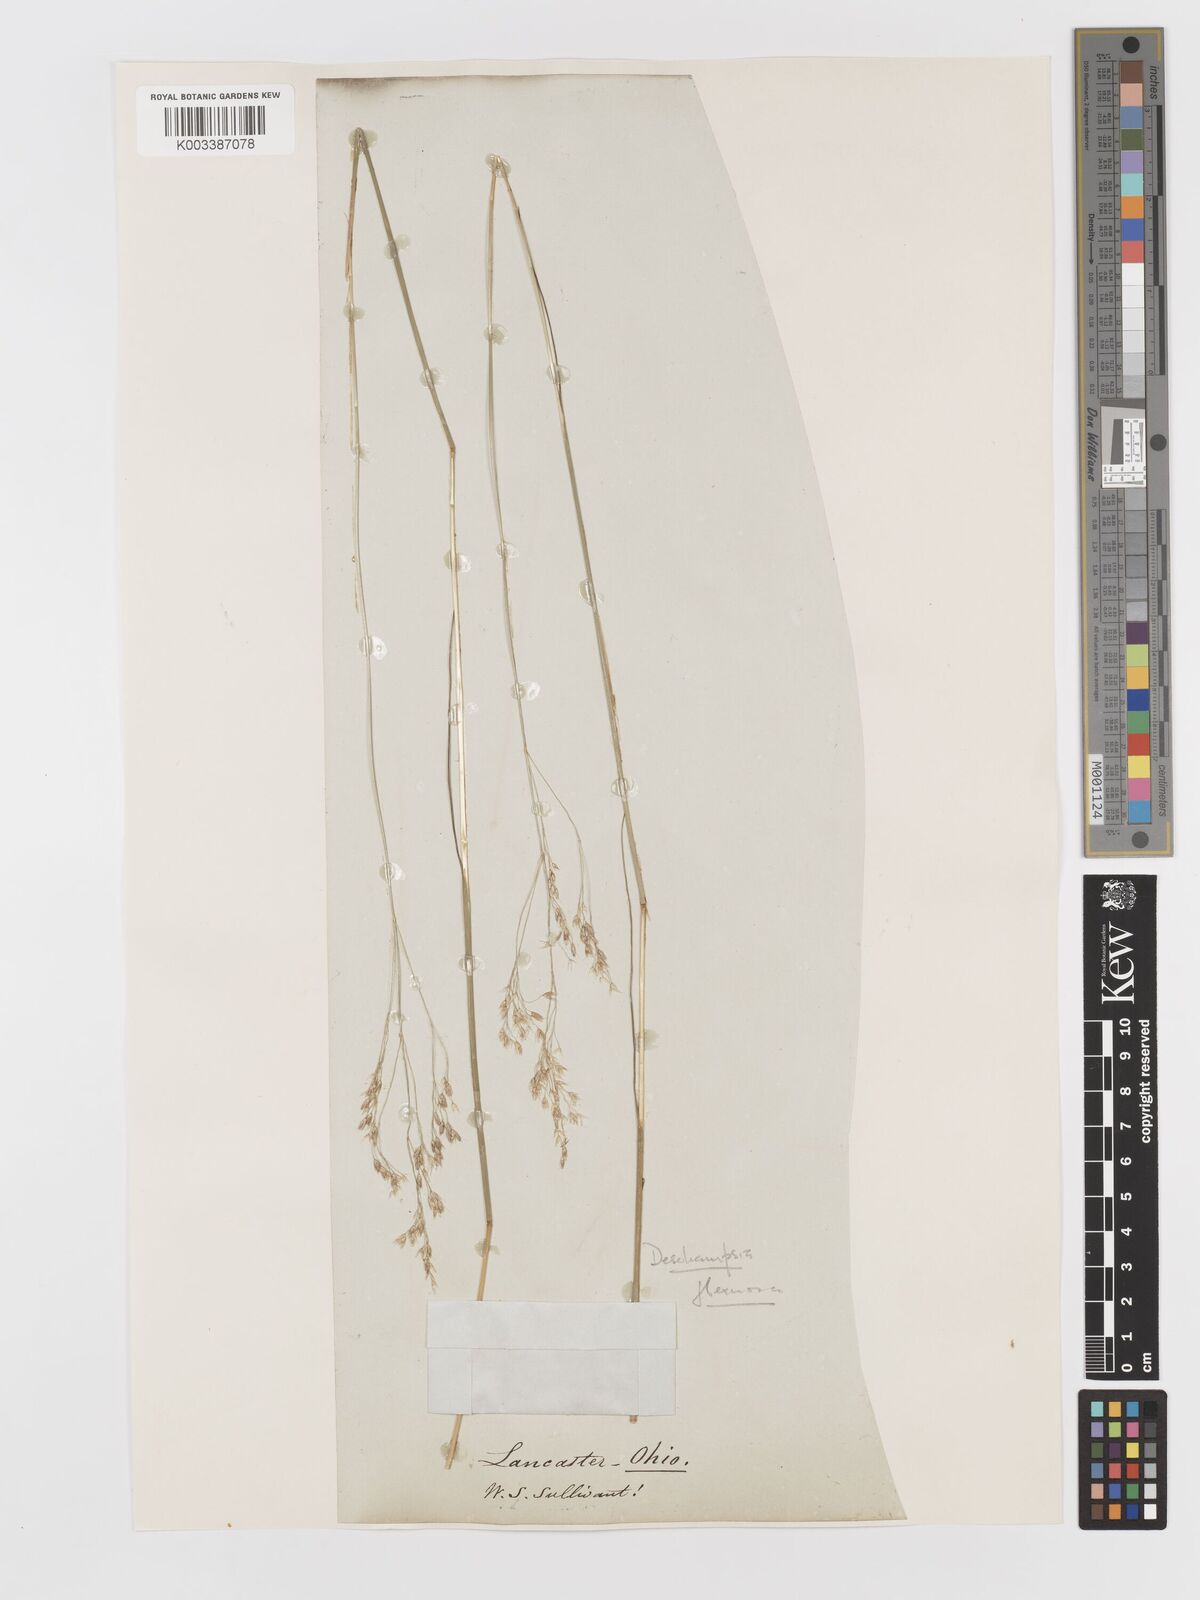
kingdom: Plantae
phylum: Tracheophyta
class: Liliopsida
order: Poales
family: Poaceae
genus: Avenella
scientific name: Avenella flexuosa
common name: Wavy hairgrass
